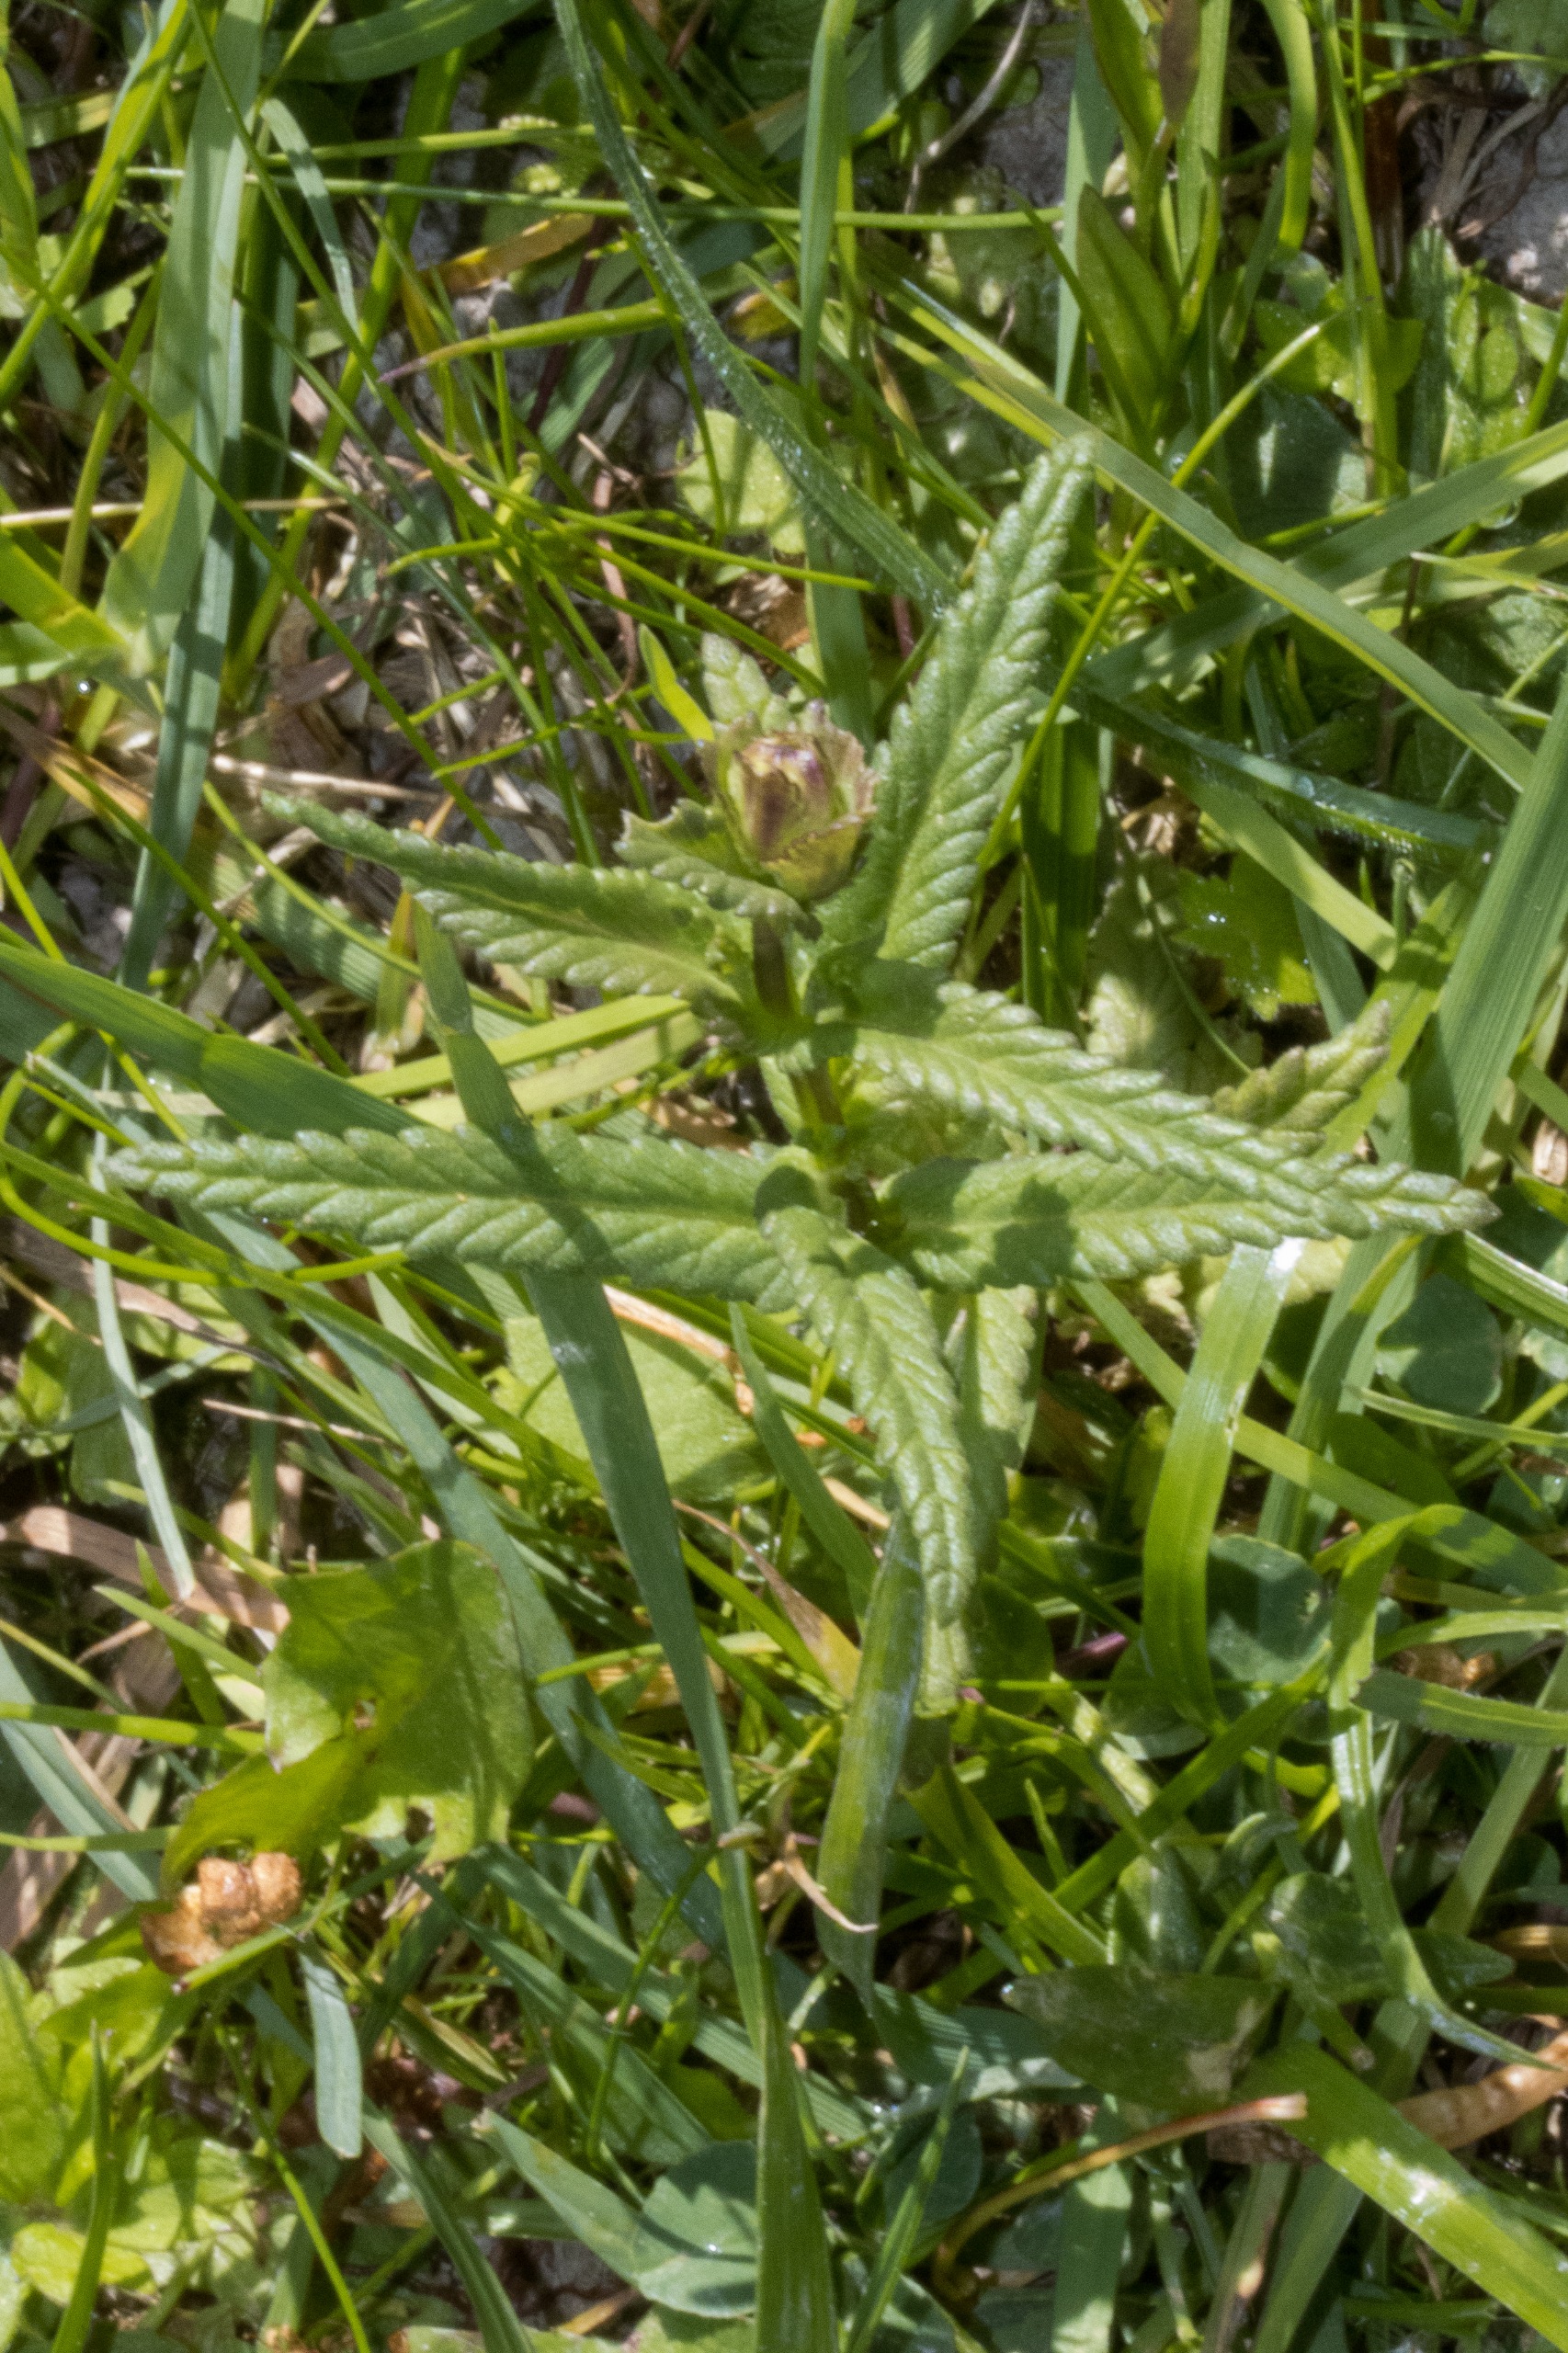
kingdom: Plantae
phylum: Tracheophyta
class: Magnoliopsida
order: Lamiales
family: Orobanchaceae
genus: Rhinanthus
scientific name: Rhinanthus minor
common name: Liden skjaller
